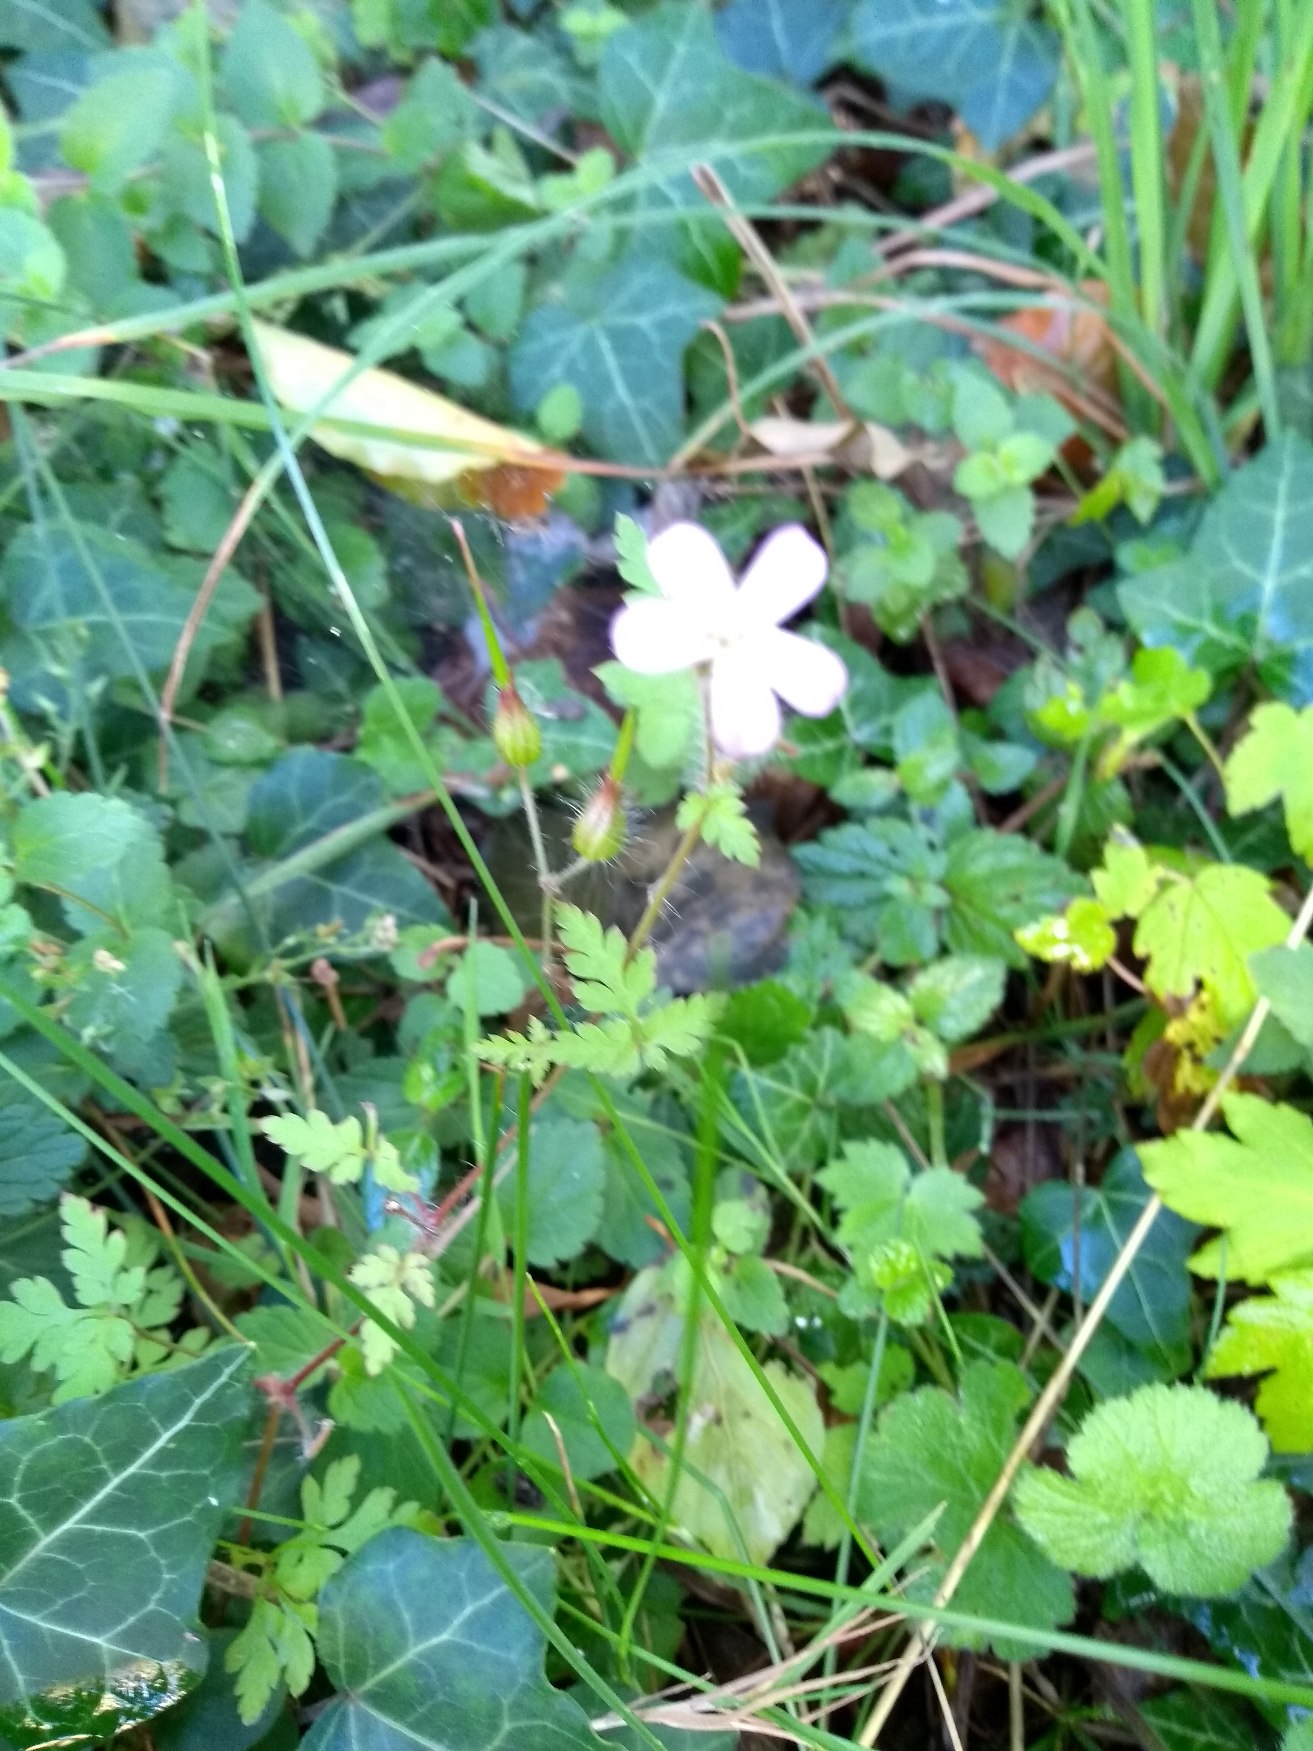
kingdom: Plantae
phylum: Tracheophyta
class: Magnoliopsida
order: Geraniales
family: Geraniaceae
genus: Geranium
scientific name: Geranium robertianum
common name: Stinkende storkenæb
